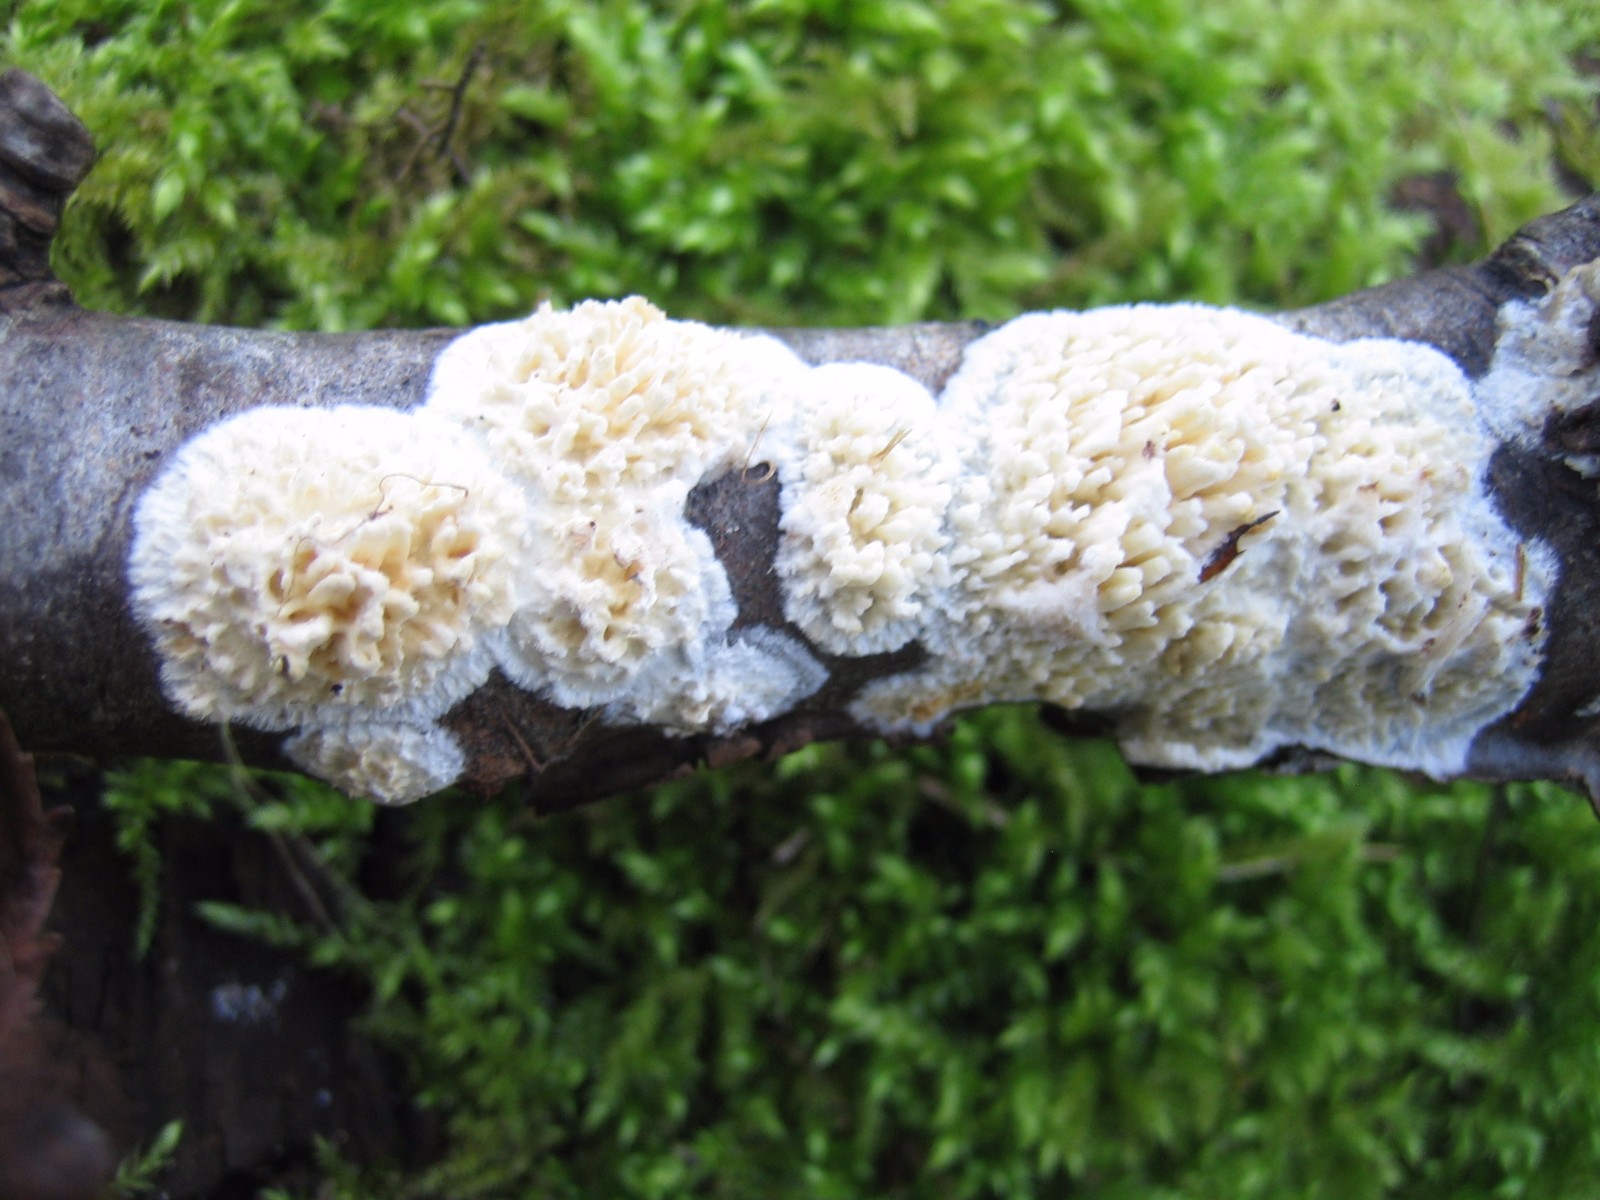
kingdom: Fungi
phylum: Basidiomycota
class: Agaricomycetes
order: Hymenochaetales
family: Schizoporaceae
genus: Xylodon
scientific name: Xylodon radula
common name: grovtandet kalkskind
